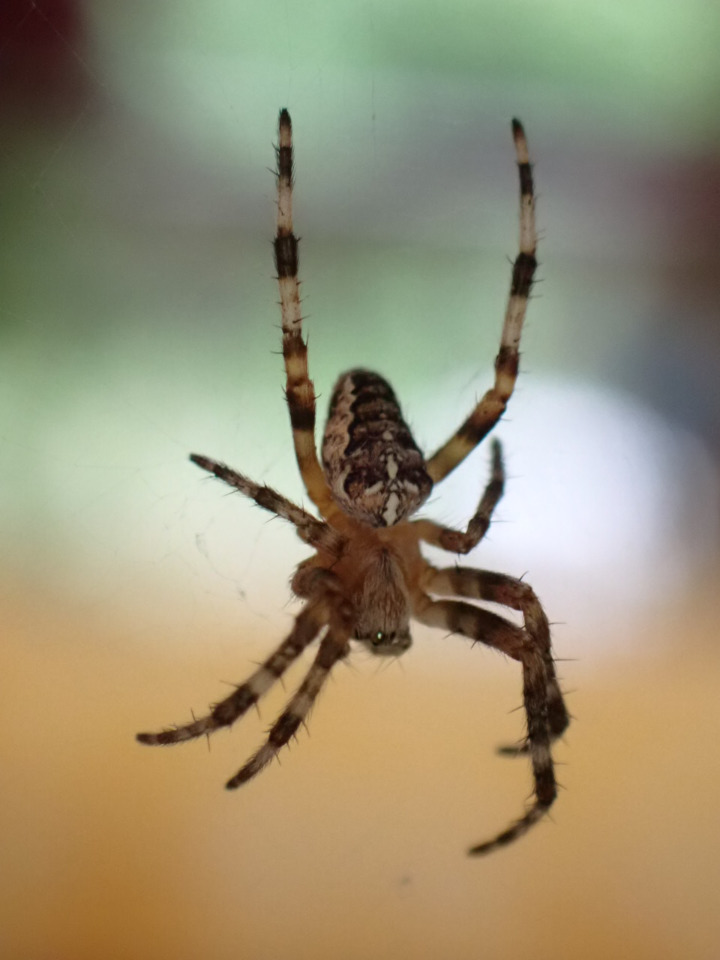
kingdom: Animalia
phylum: Arthropoda
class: Arachnida
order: Araneae
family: Araneidae
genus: Araneus
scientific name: Araneus diadematus
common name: Korsedderkop
